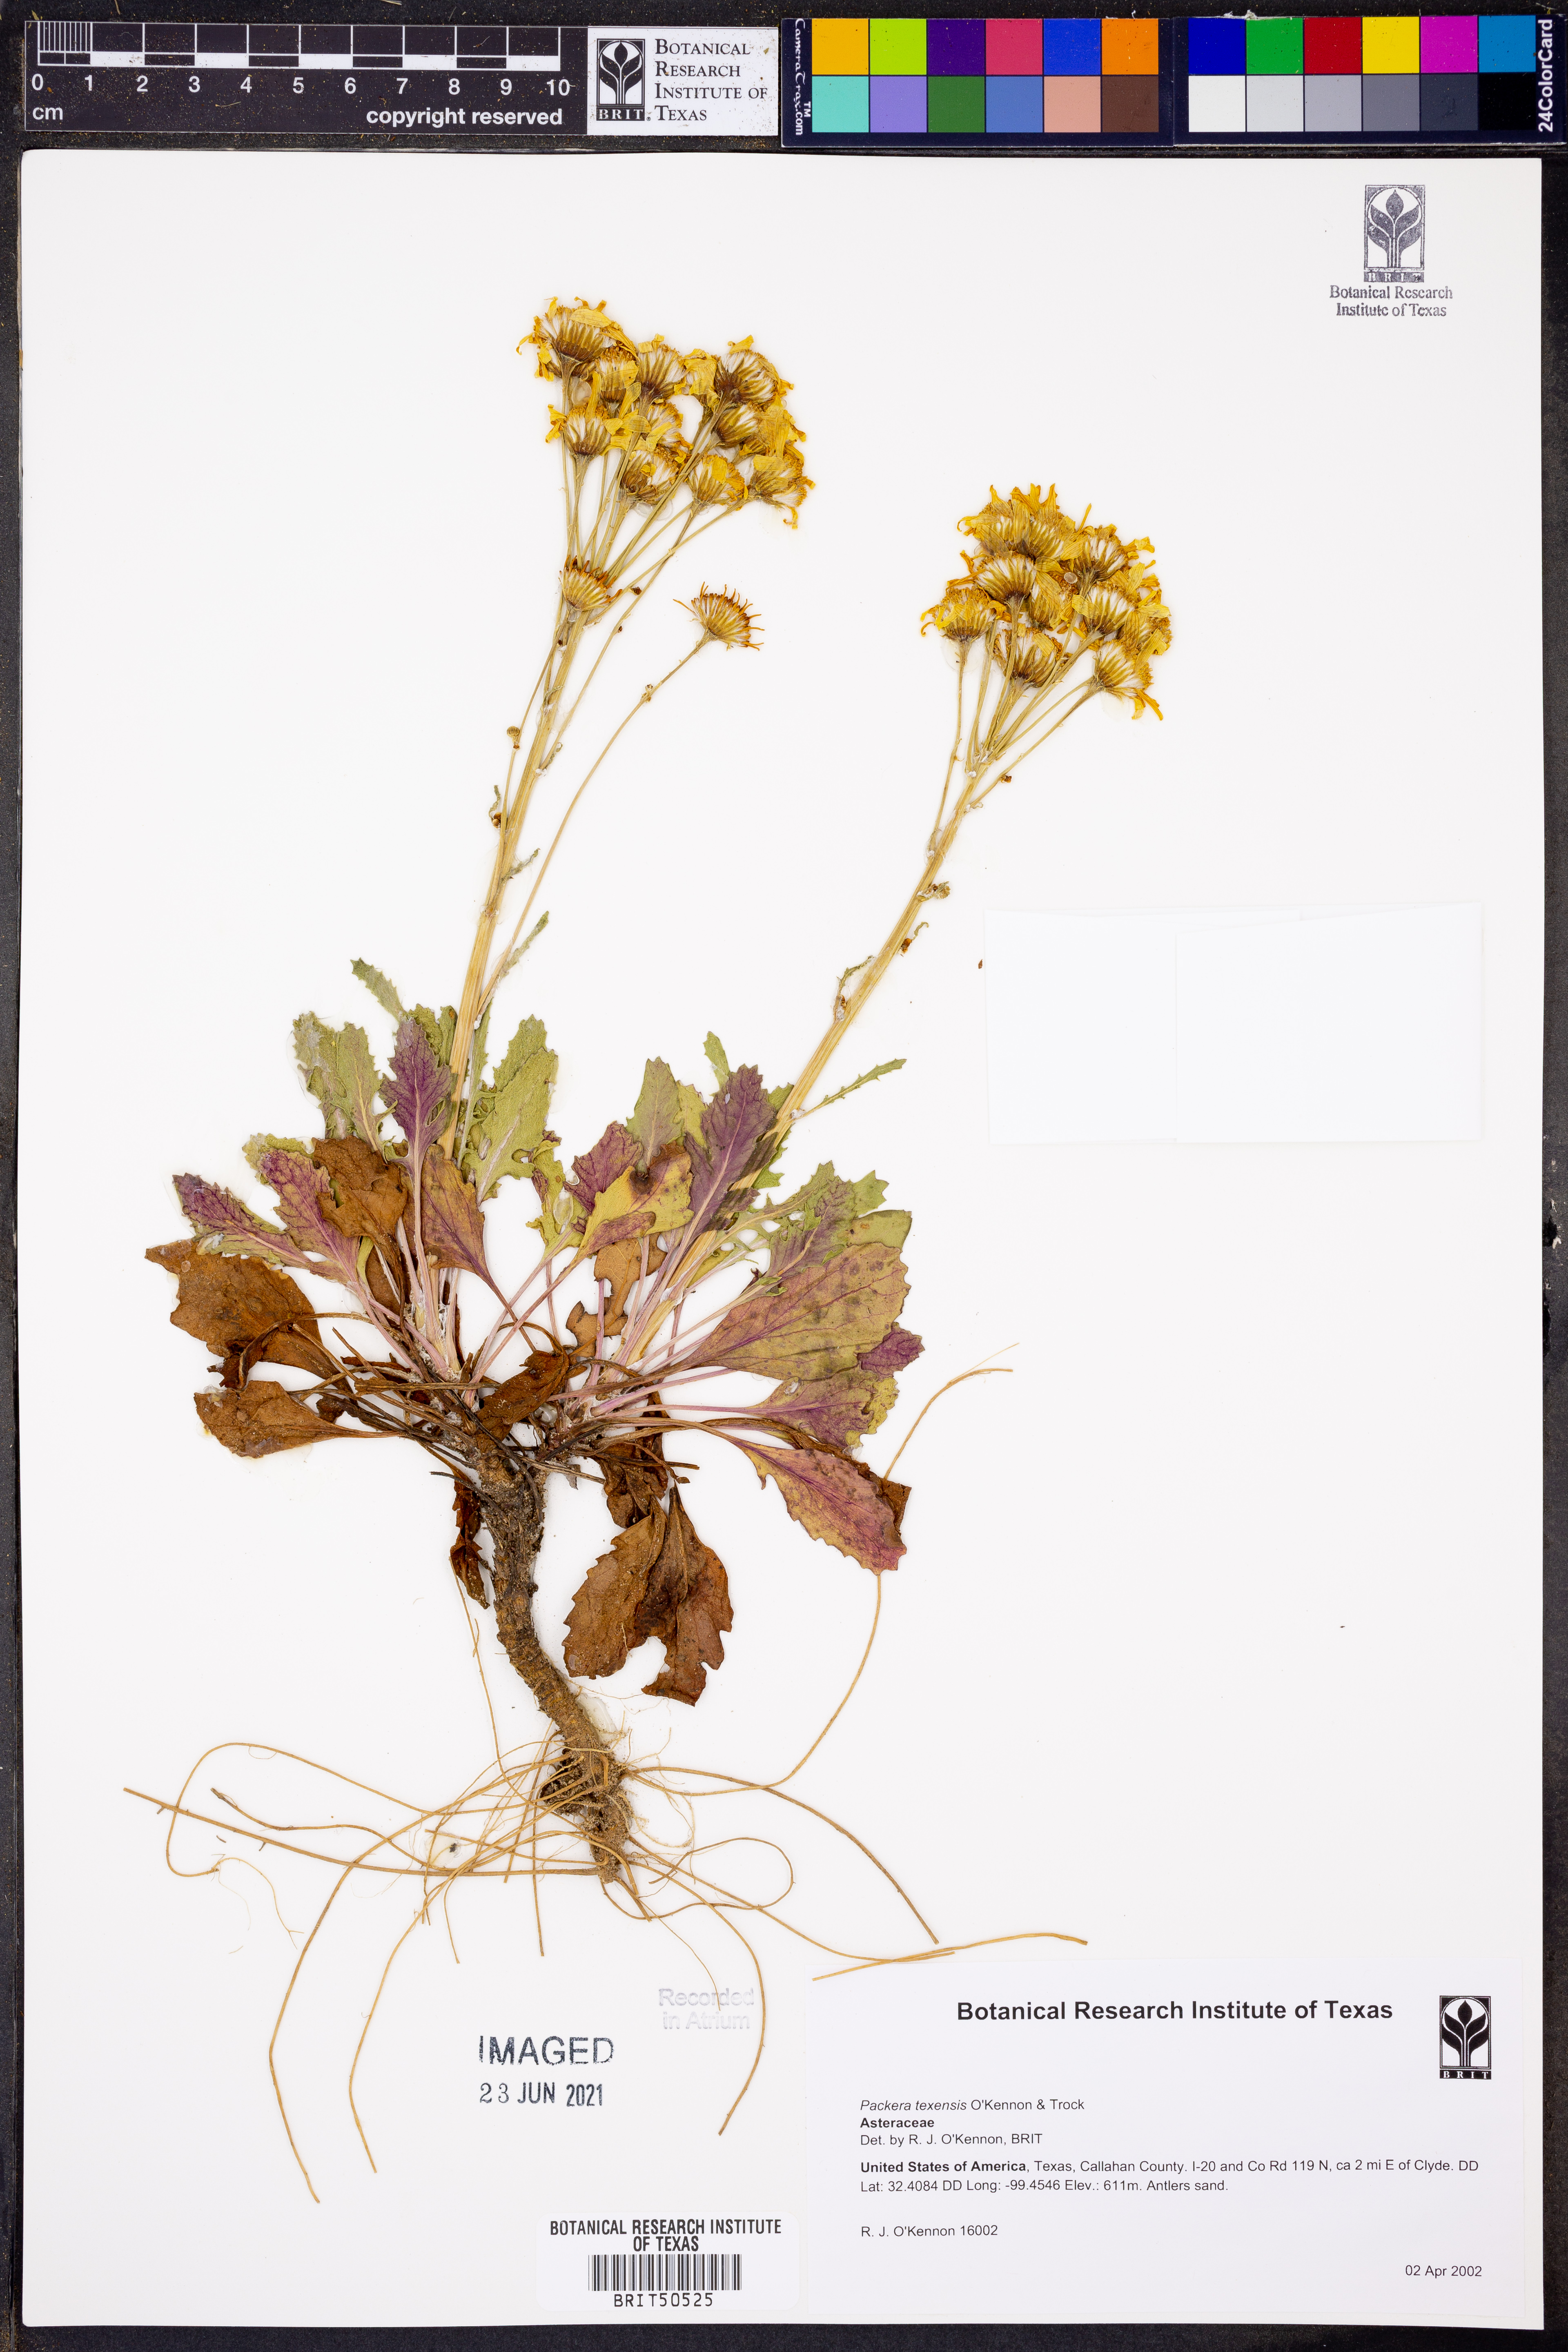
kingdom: Plantae
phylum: Tracheophyta
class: Magnoliopsida
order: Asterales
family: Asteraceae
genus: Packera
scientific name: Packera texensis
